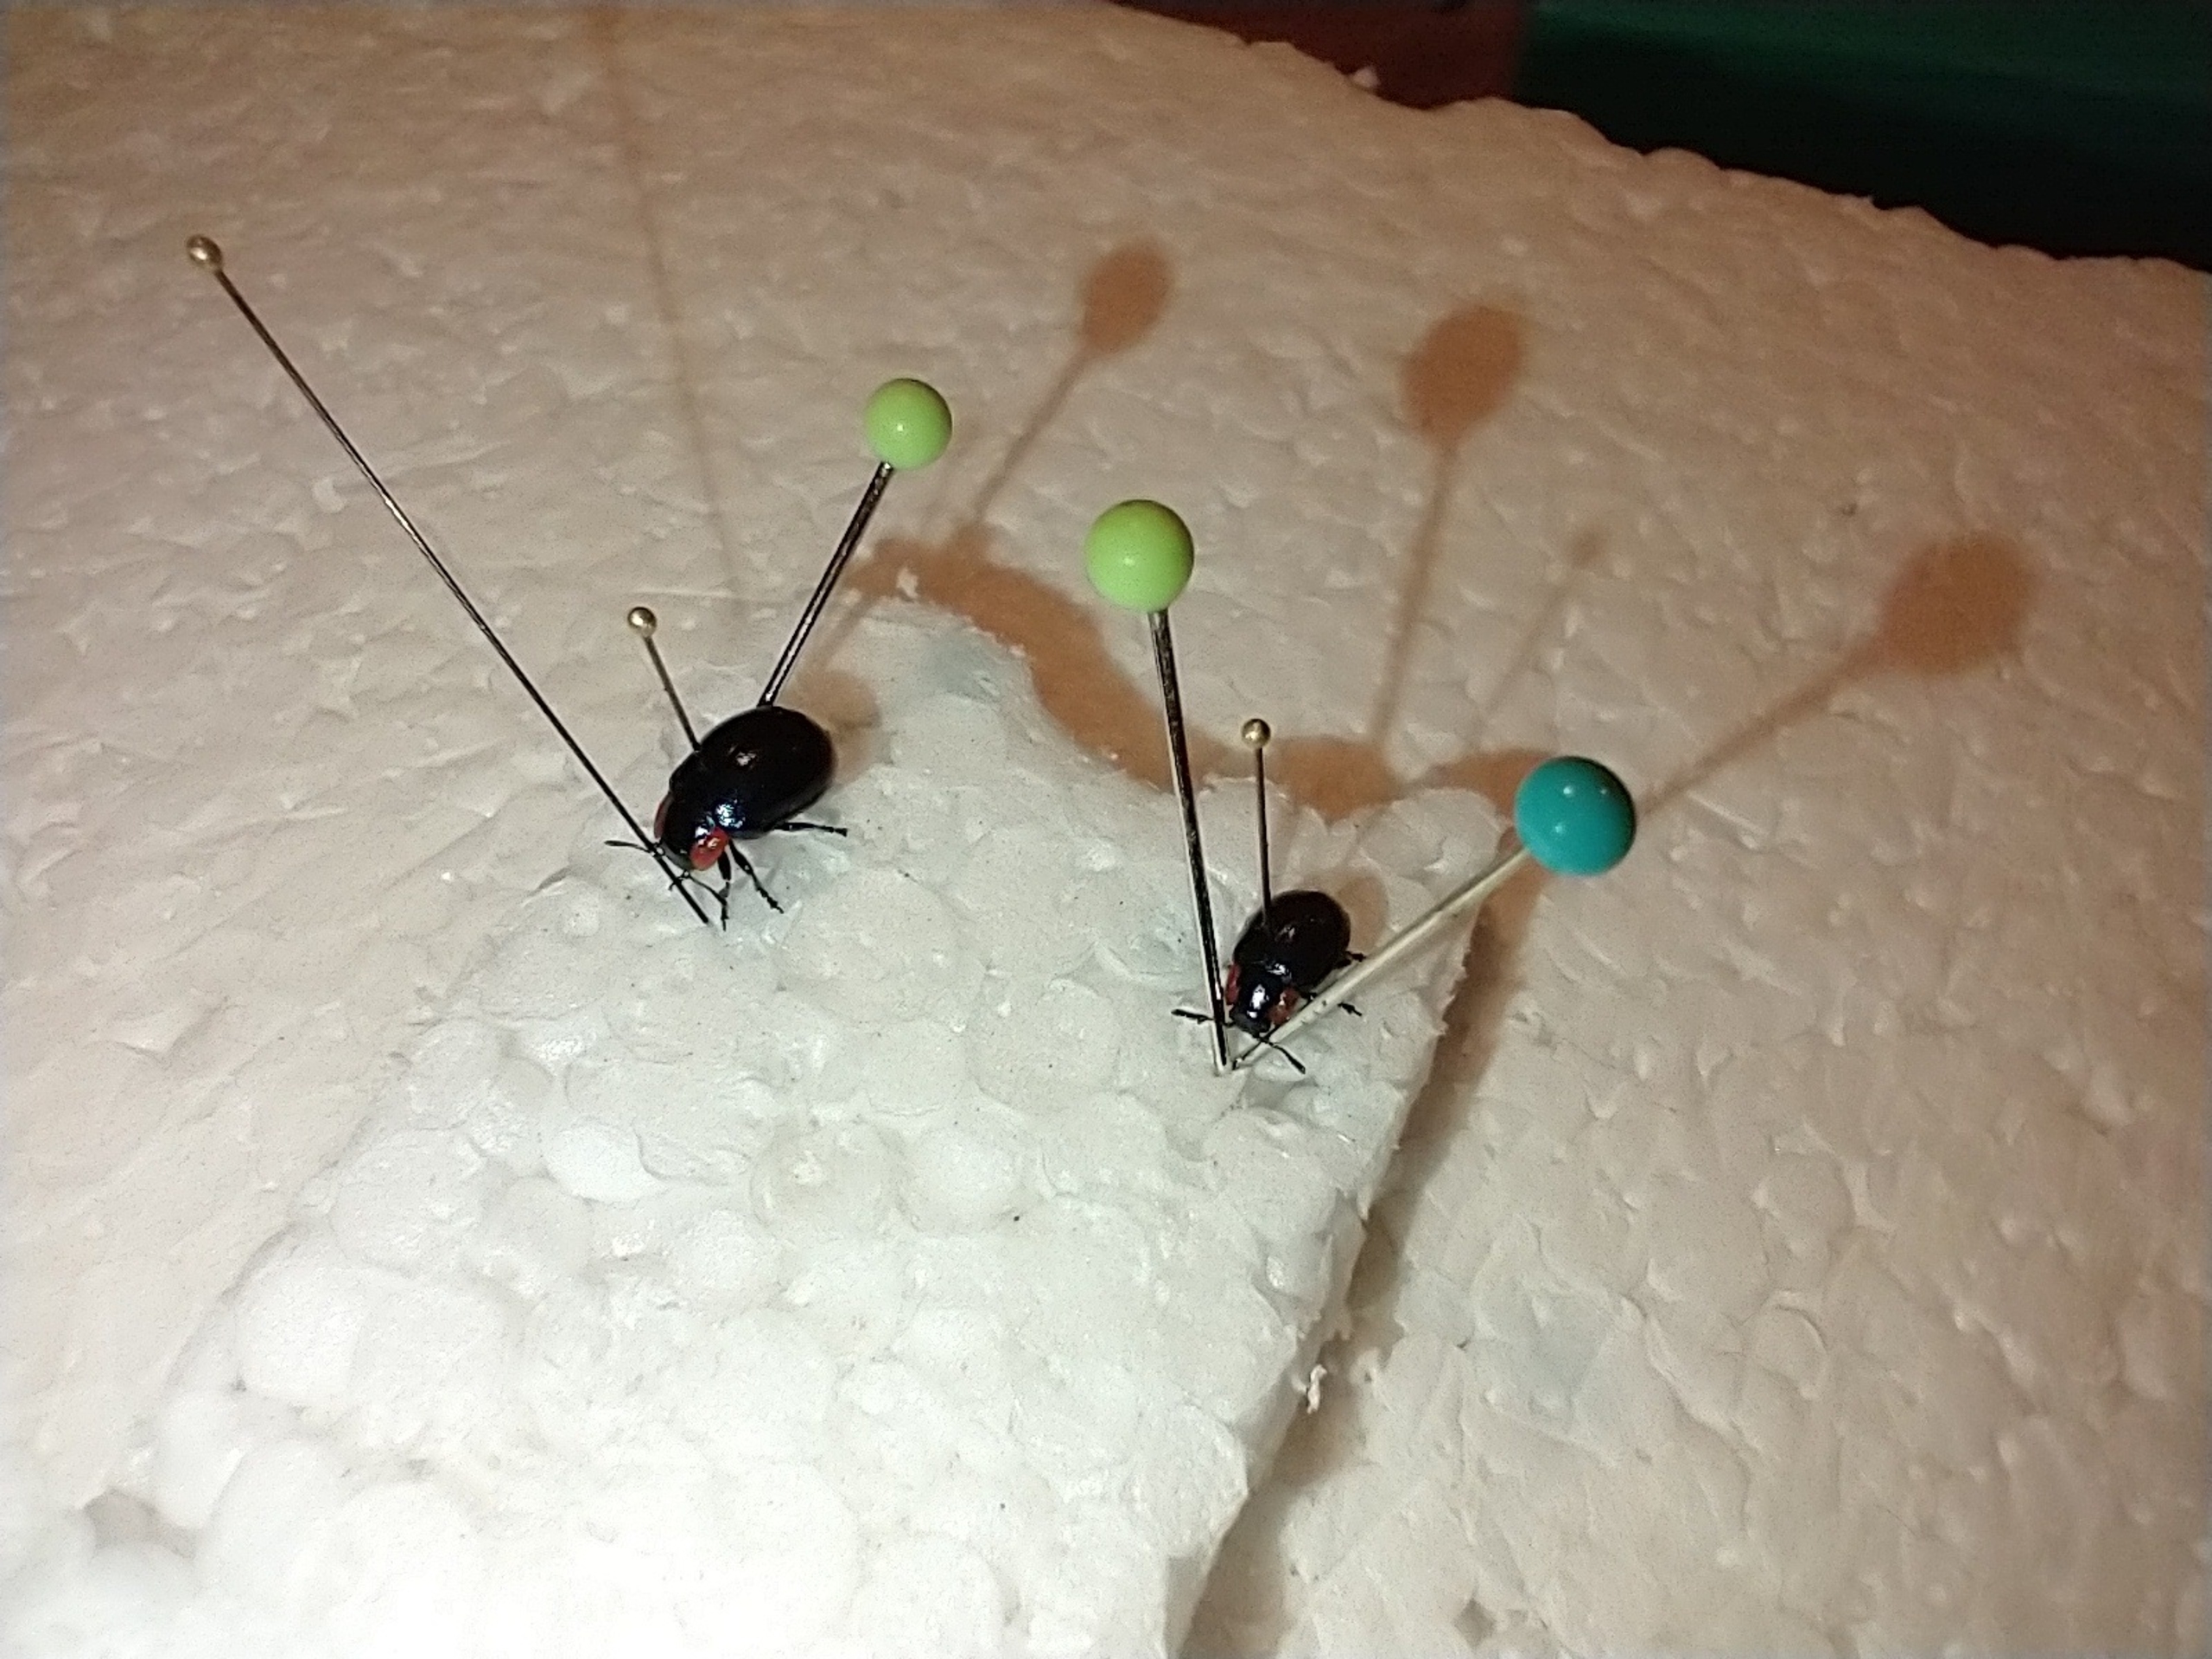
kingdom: Animalia
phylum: Arthropoda
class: Insecta
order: Coleoptera
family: Chrysomelidae
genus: Chrysomela
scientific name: Chrysomela collaris
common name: Klitbladbille
